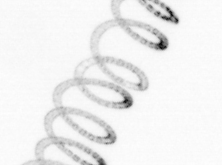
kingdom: Chromista
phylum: Ochrophyta
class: Bacillariophyceae
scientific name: Bacillariophyceae
